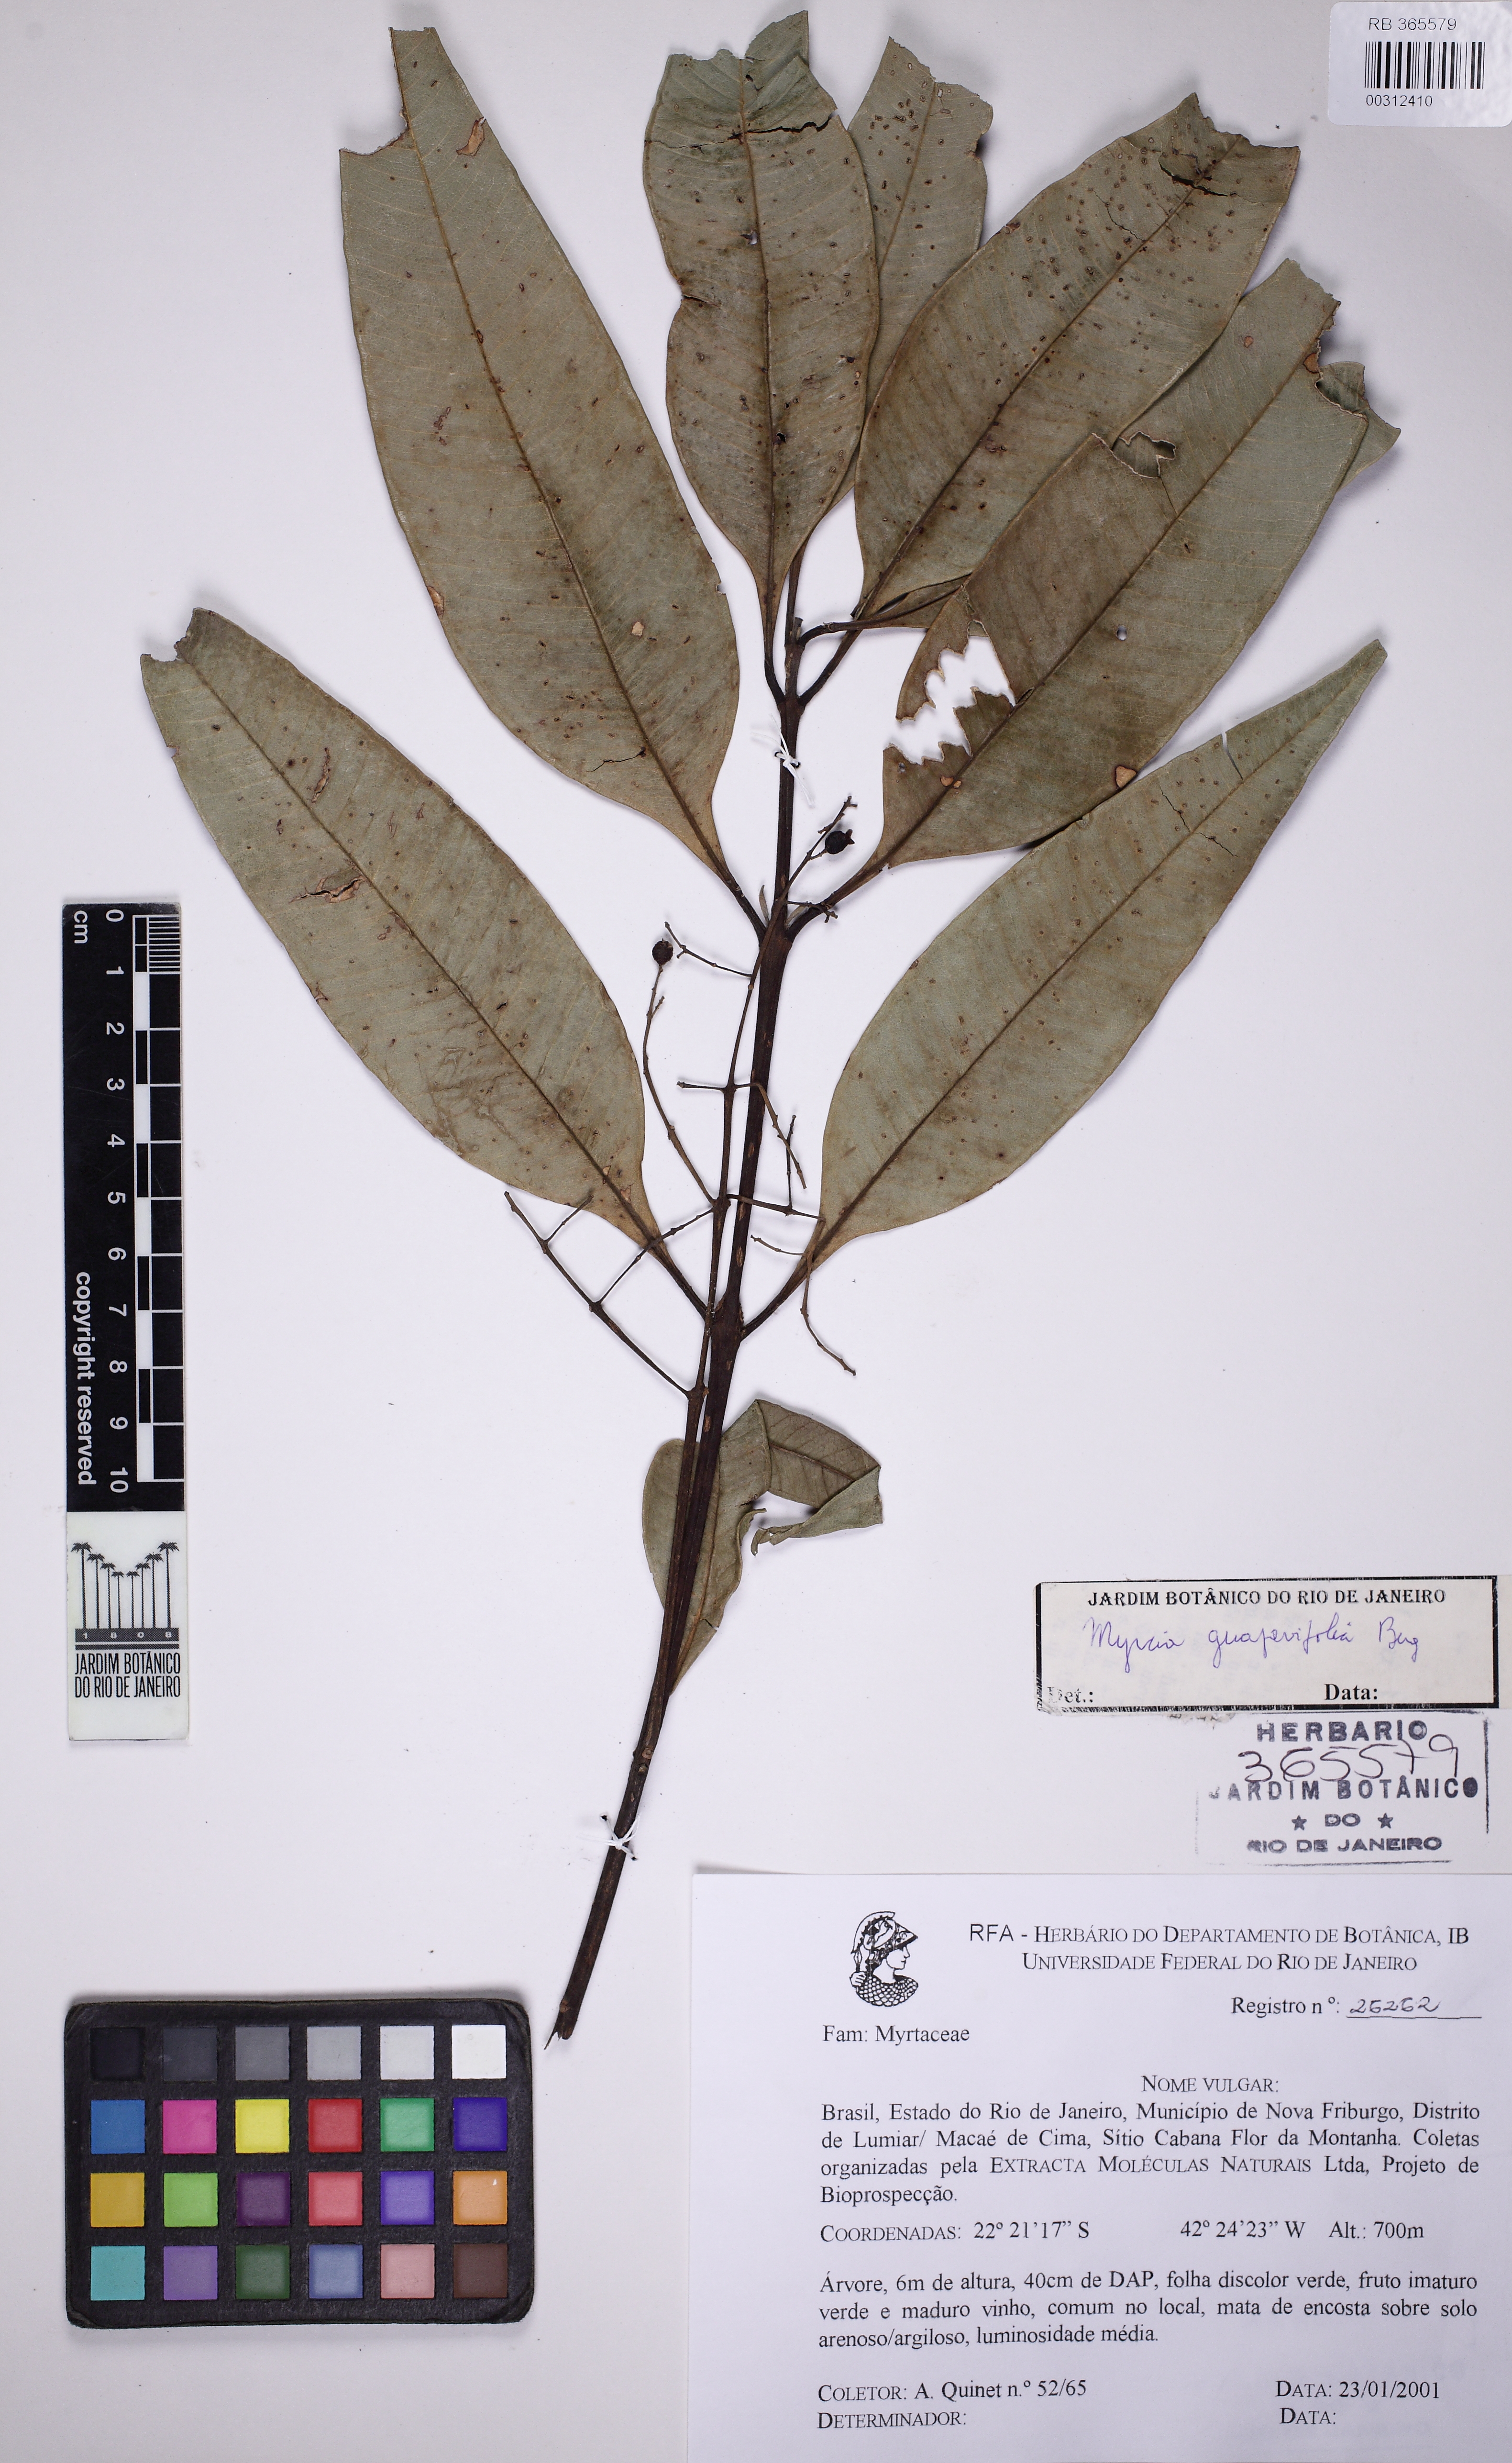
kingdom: Plantae
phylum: Tracheophyta
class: Magnoliopsida
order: Myrtales
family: Myrtaceae
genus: Myrcia
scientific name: Myrcia splendens
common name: Surinam cherry
